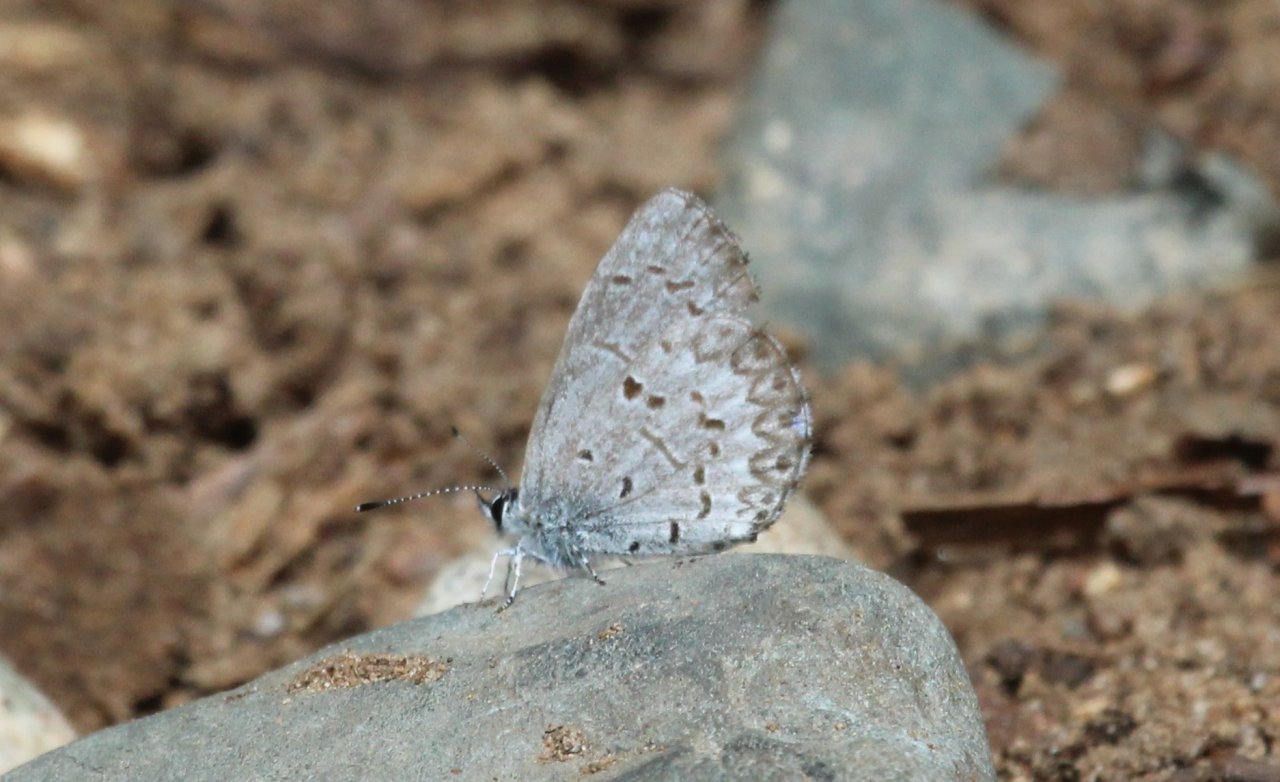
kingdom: Animalia
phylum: Arthropoda
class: Insecta
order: Lepidoptera
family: Lycaenidae
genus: Celastrina
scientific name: Celastrina lucia
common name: Northern Spring Azure
